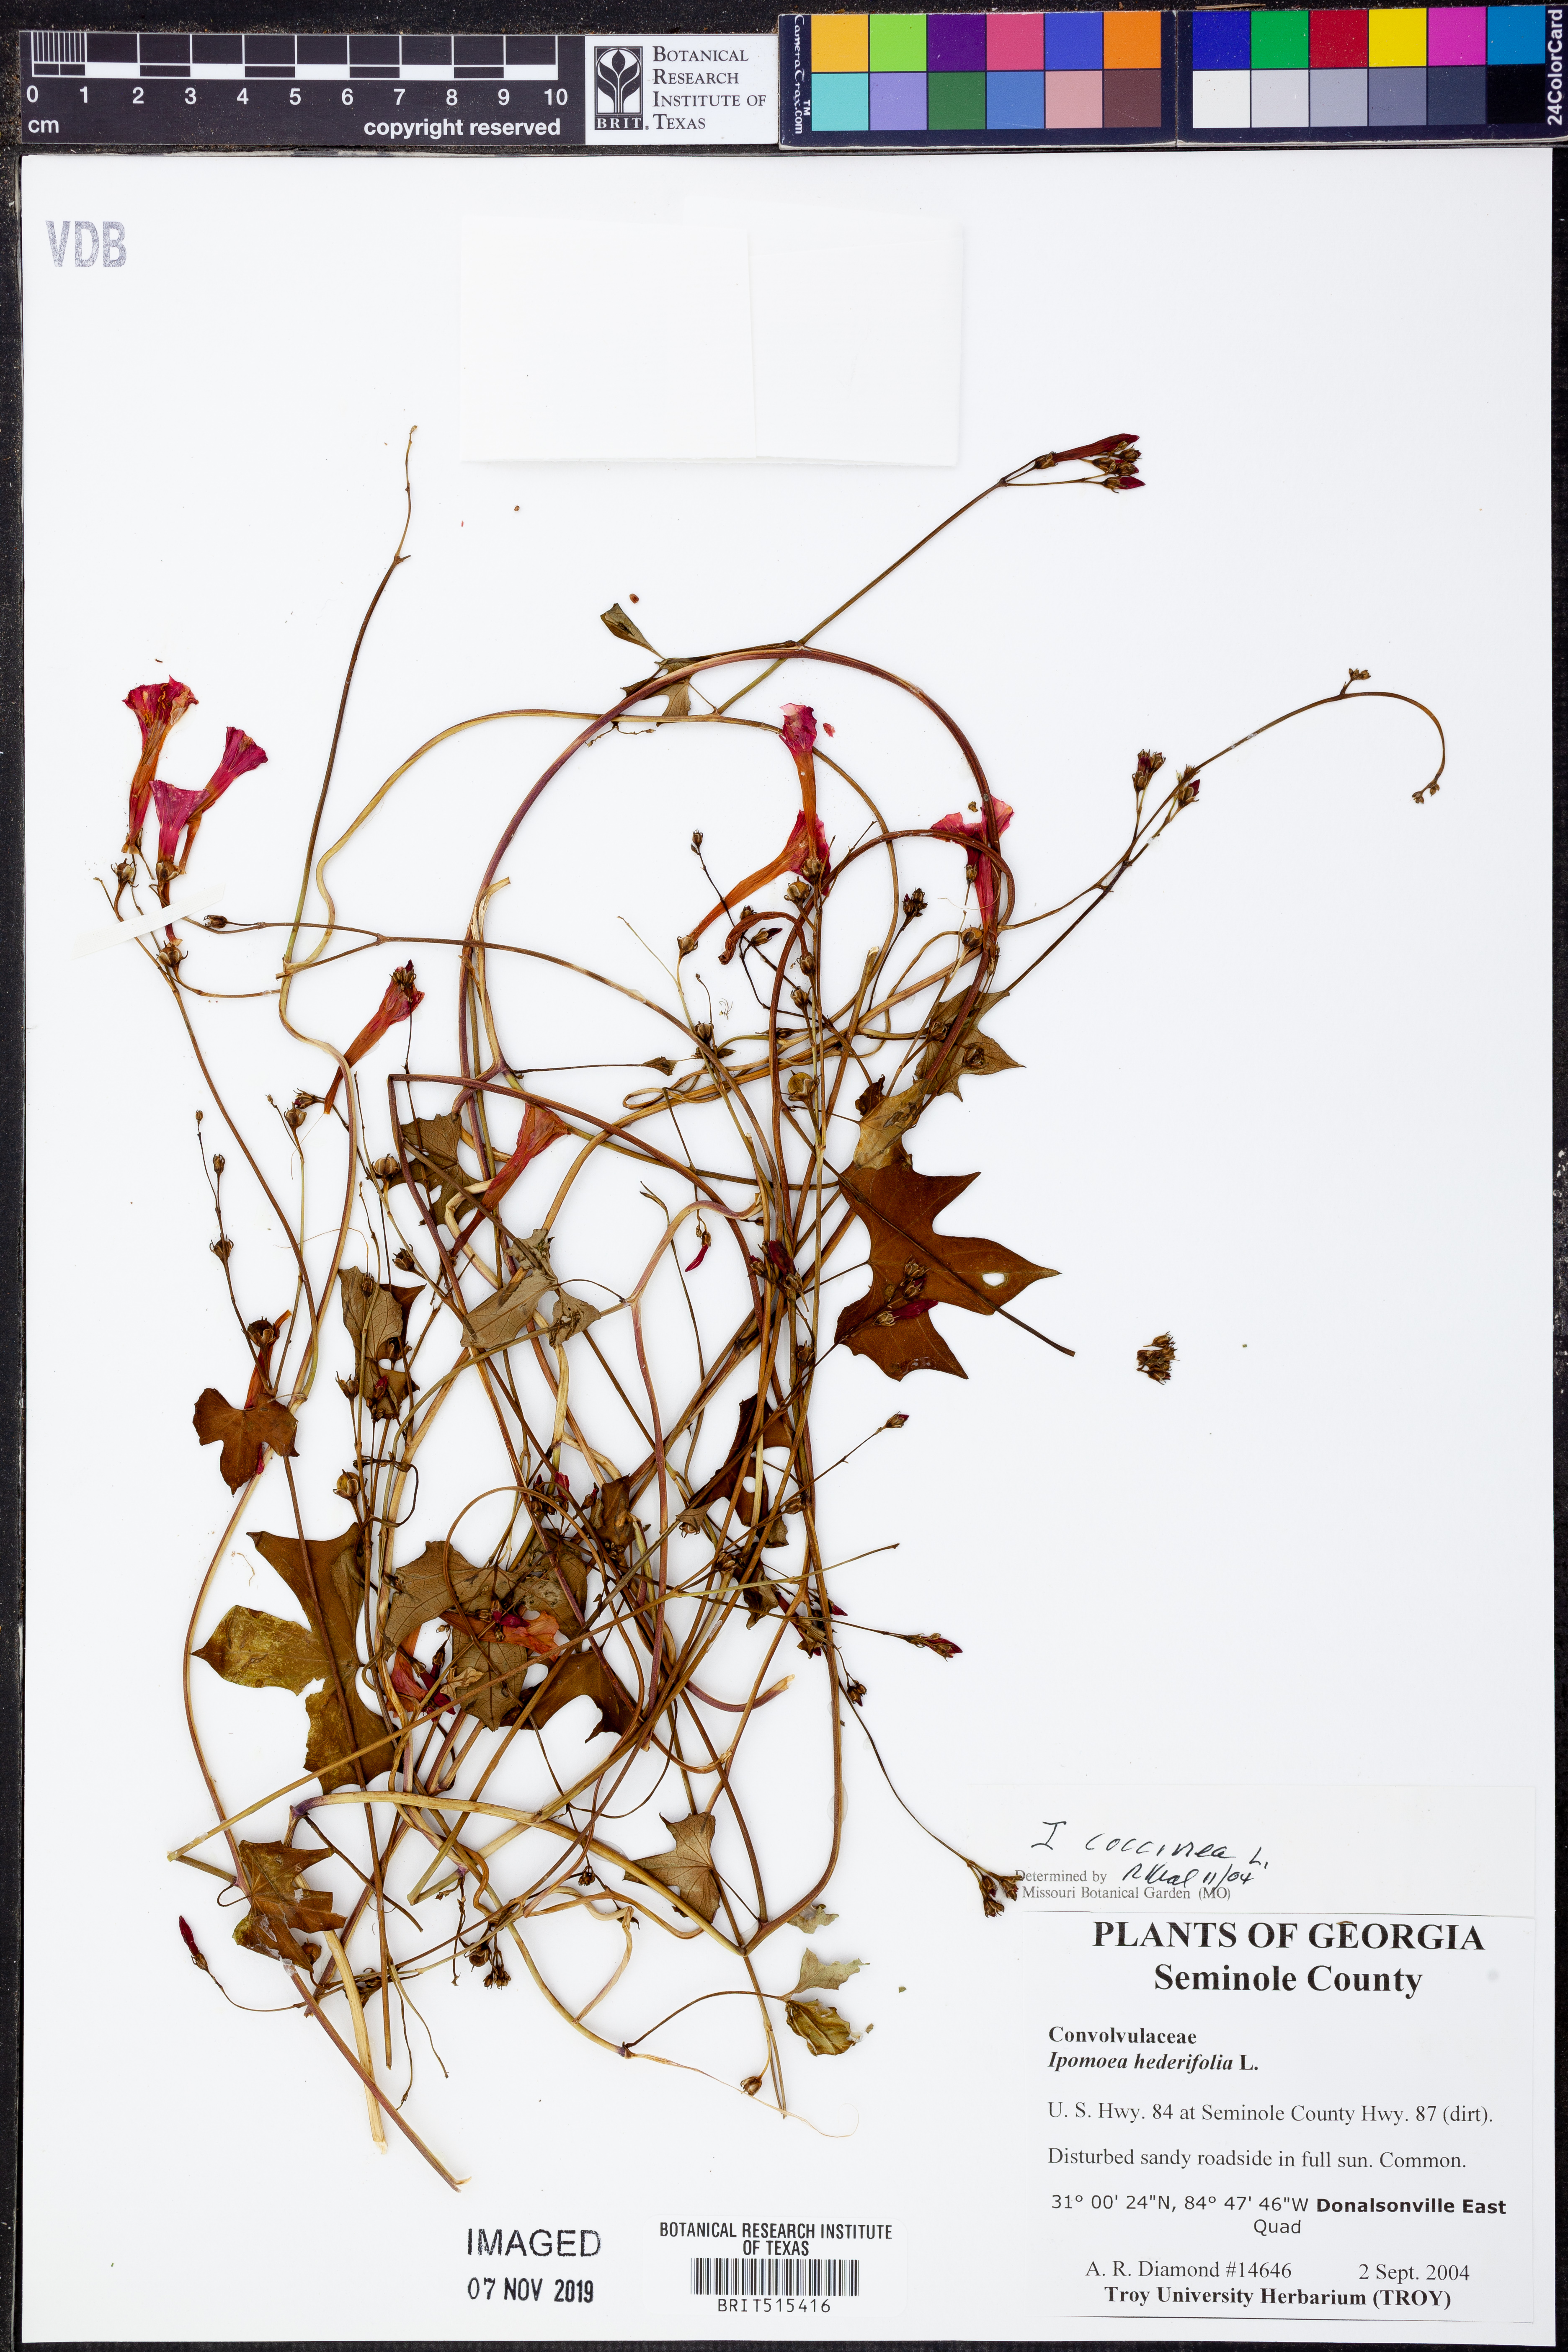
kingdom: Plantae
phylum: Tracheophyta
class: Magnoliopsida
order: Solanales
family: Convolvulaceae
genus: Ipomoea
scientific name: Ipomoea coccinea
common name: Red morning-glory
